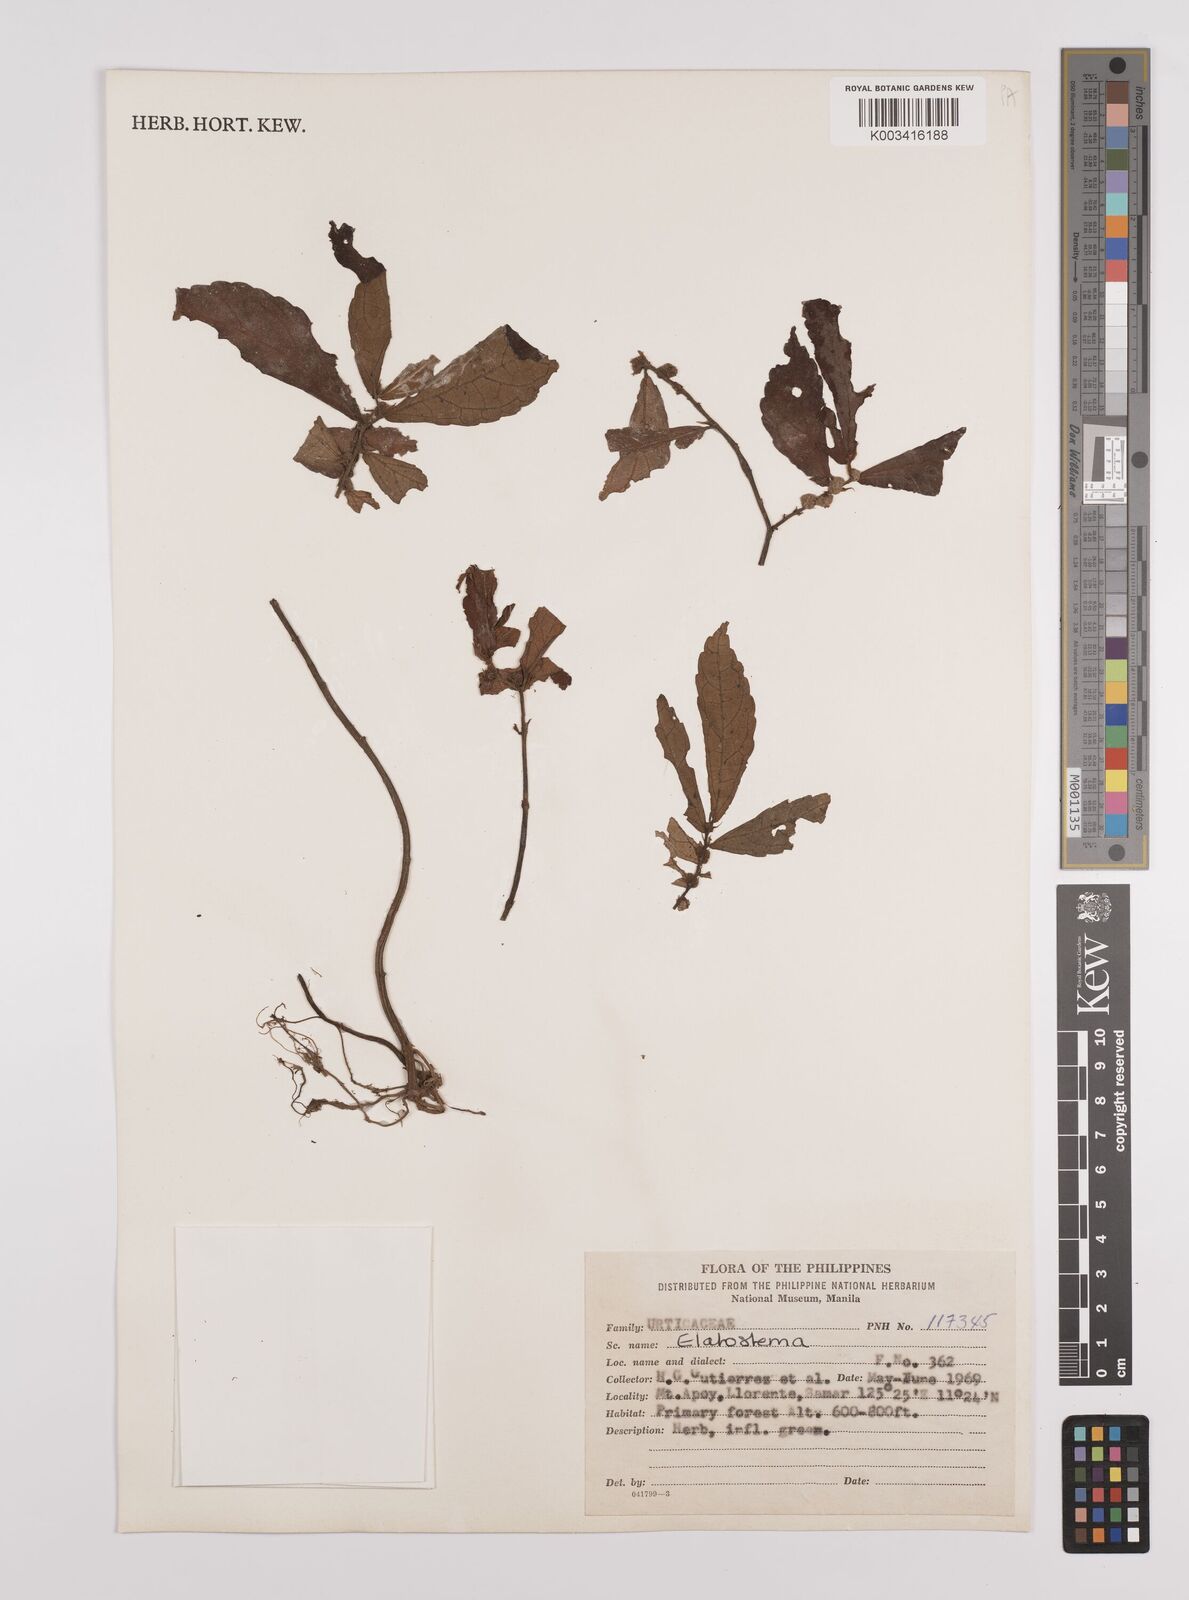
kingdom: Plantae
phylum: Tracheophyta
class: Magnoliopsida
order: Rosales
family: Urticaceae
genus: Elatostema
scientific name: Elatostema
